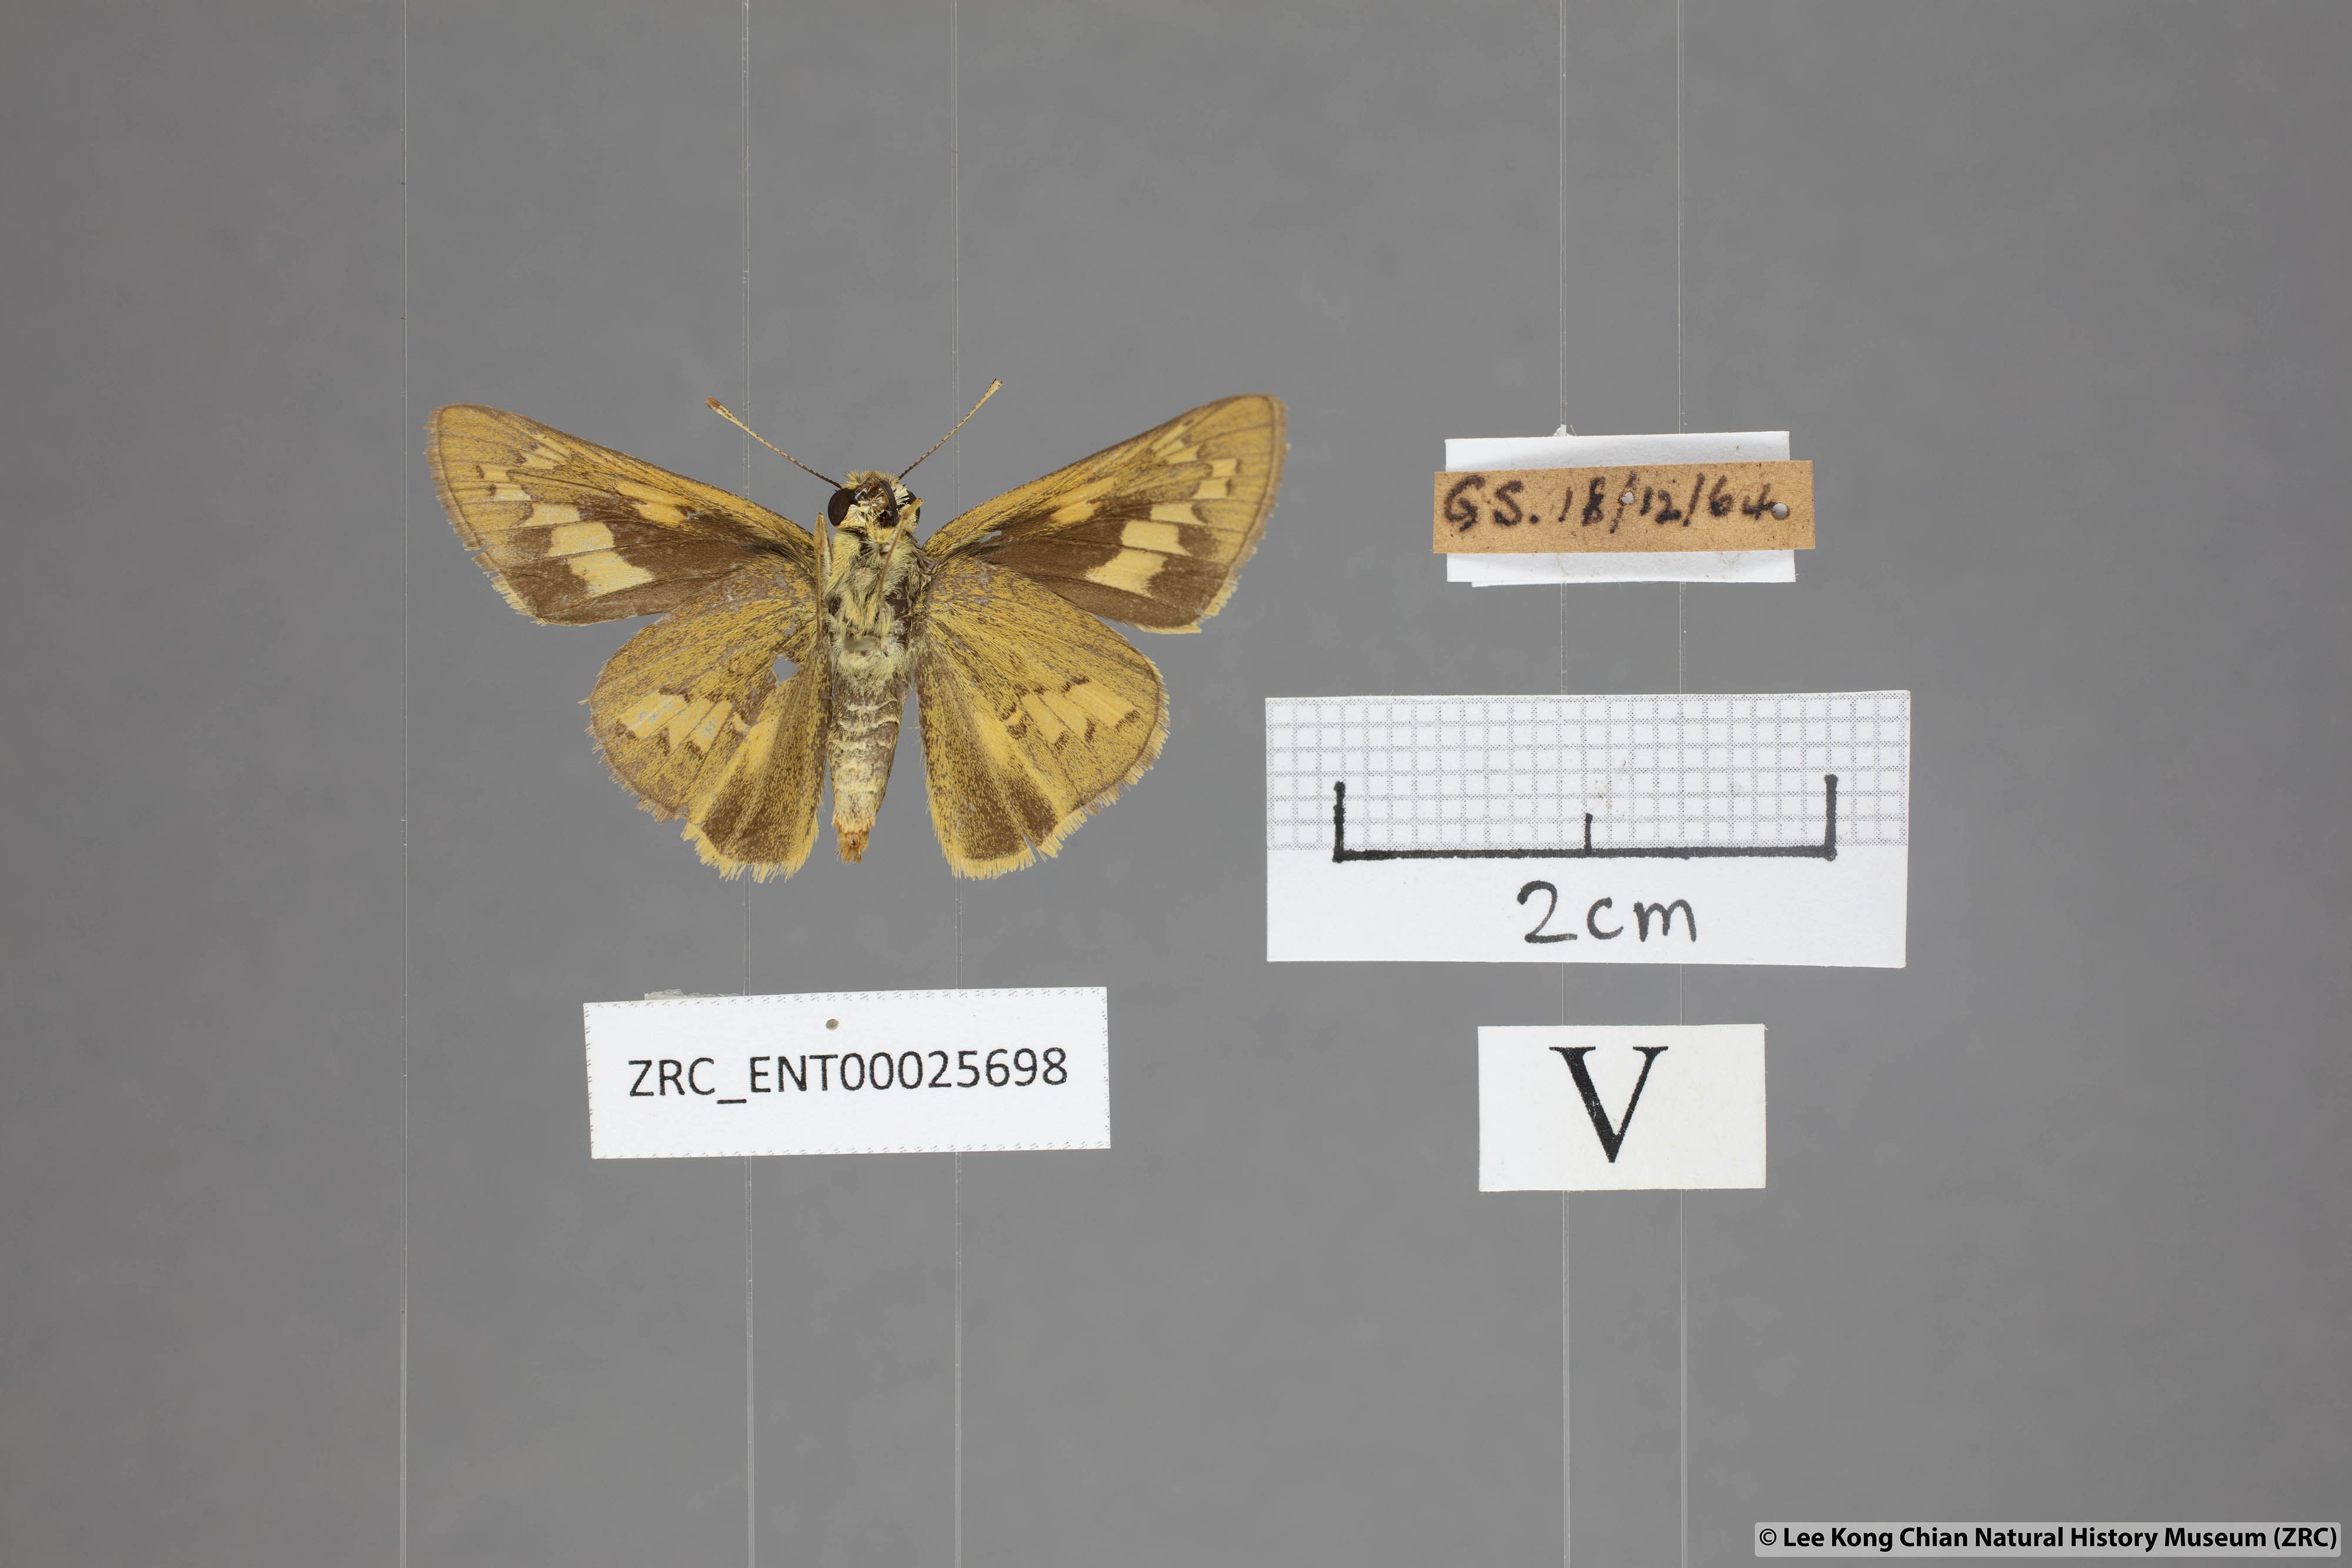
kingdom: Animalia
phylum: Arthropoda
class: Insecta
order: Lepidoptera
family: Hesperiidae
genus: Telicota
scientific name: Telicota ohara
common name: Dark palm dart
